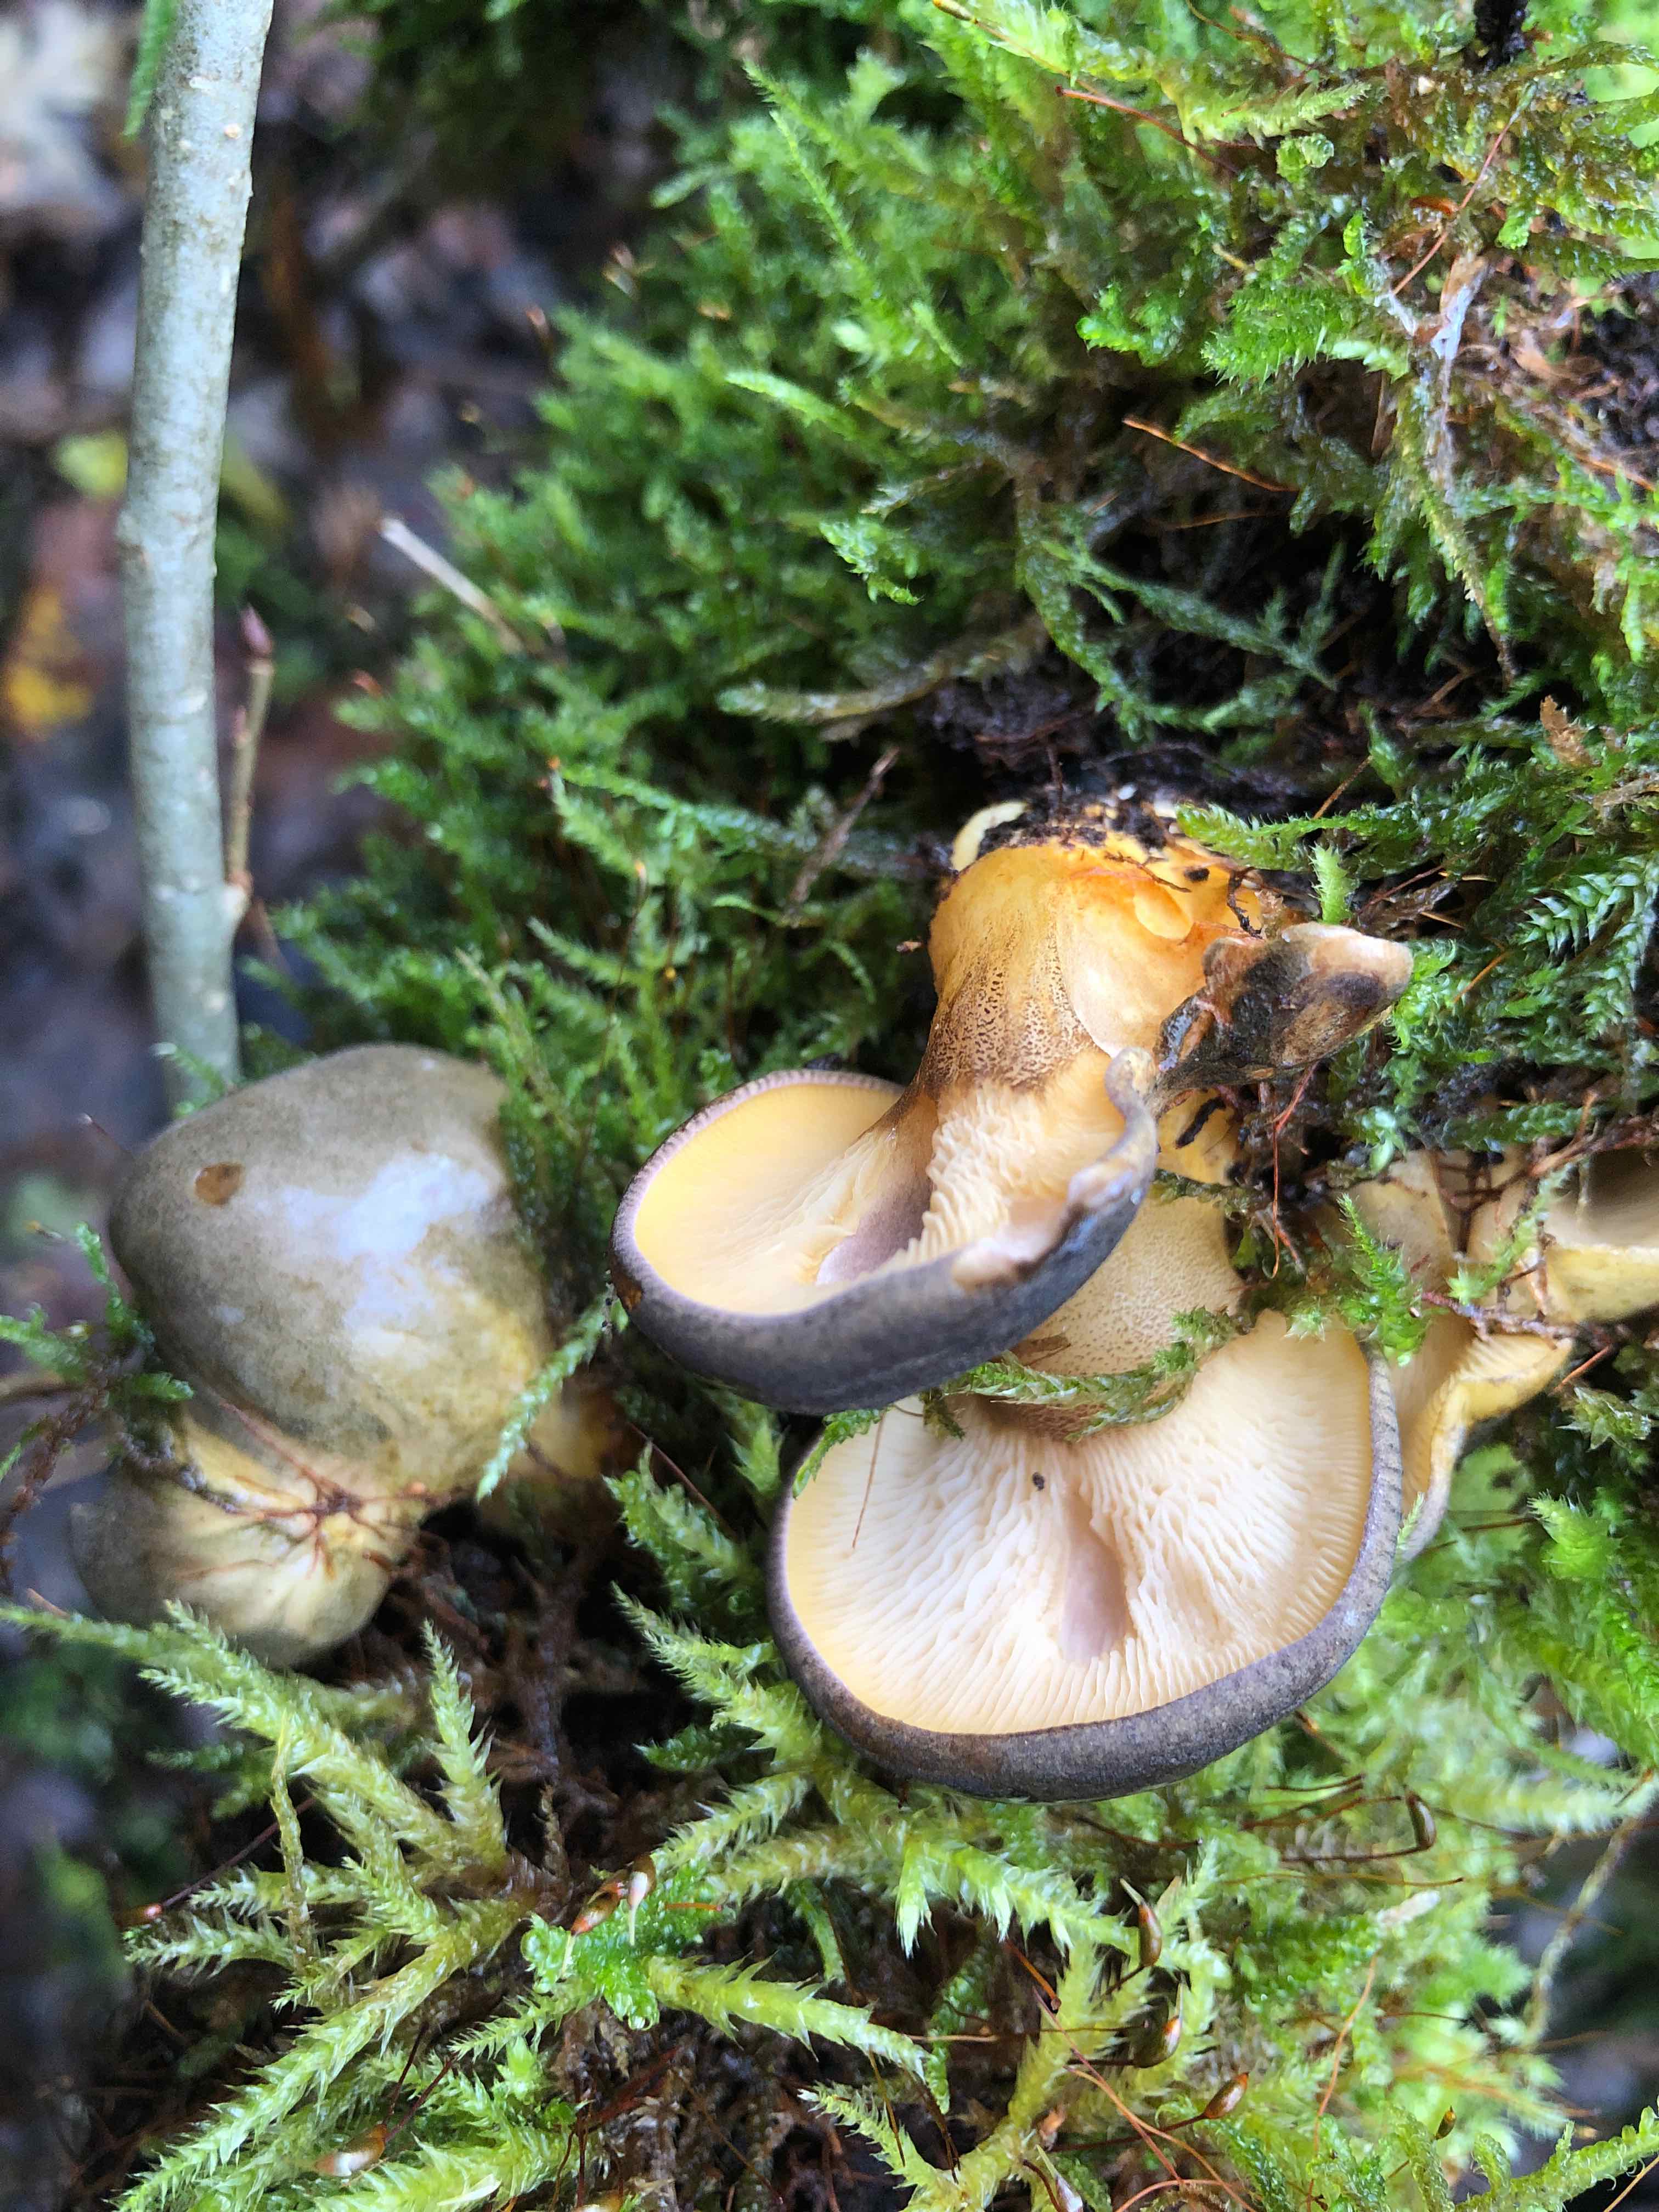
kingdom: Fungi
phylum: Basidiomycota
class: Agaricomycetes
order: Agaricales
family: Sarcomyxaceae
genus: Sarcomyxa
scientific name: Sarcomyxa serotina
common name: gummihat
